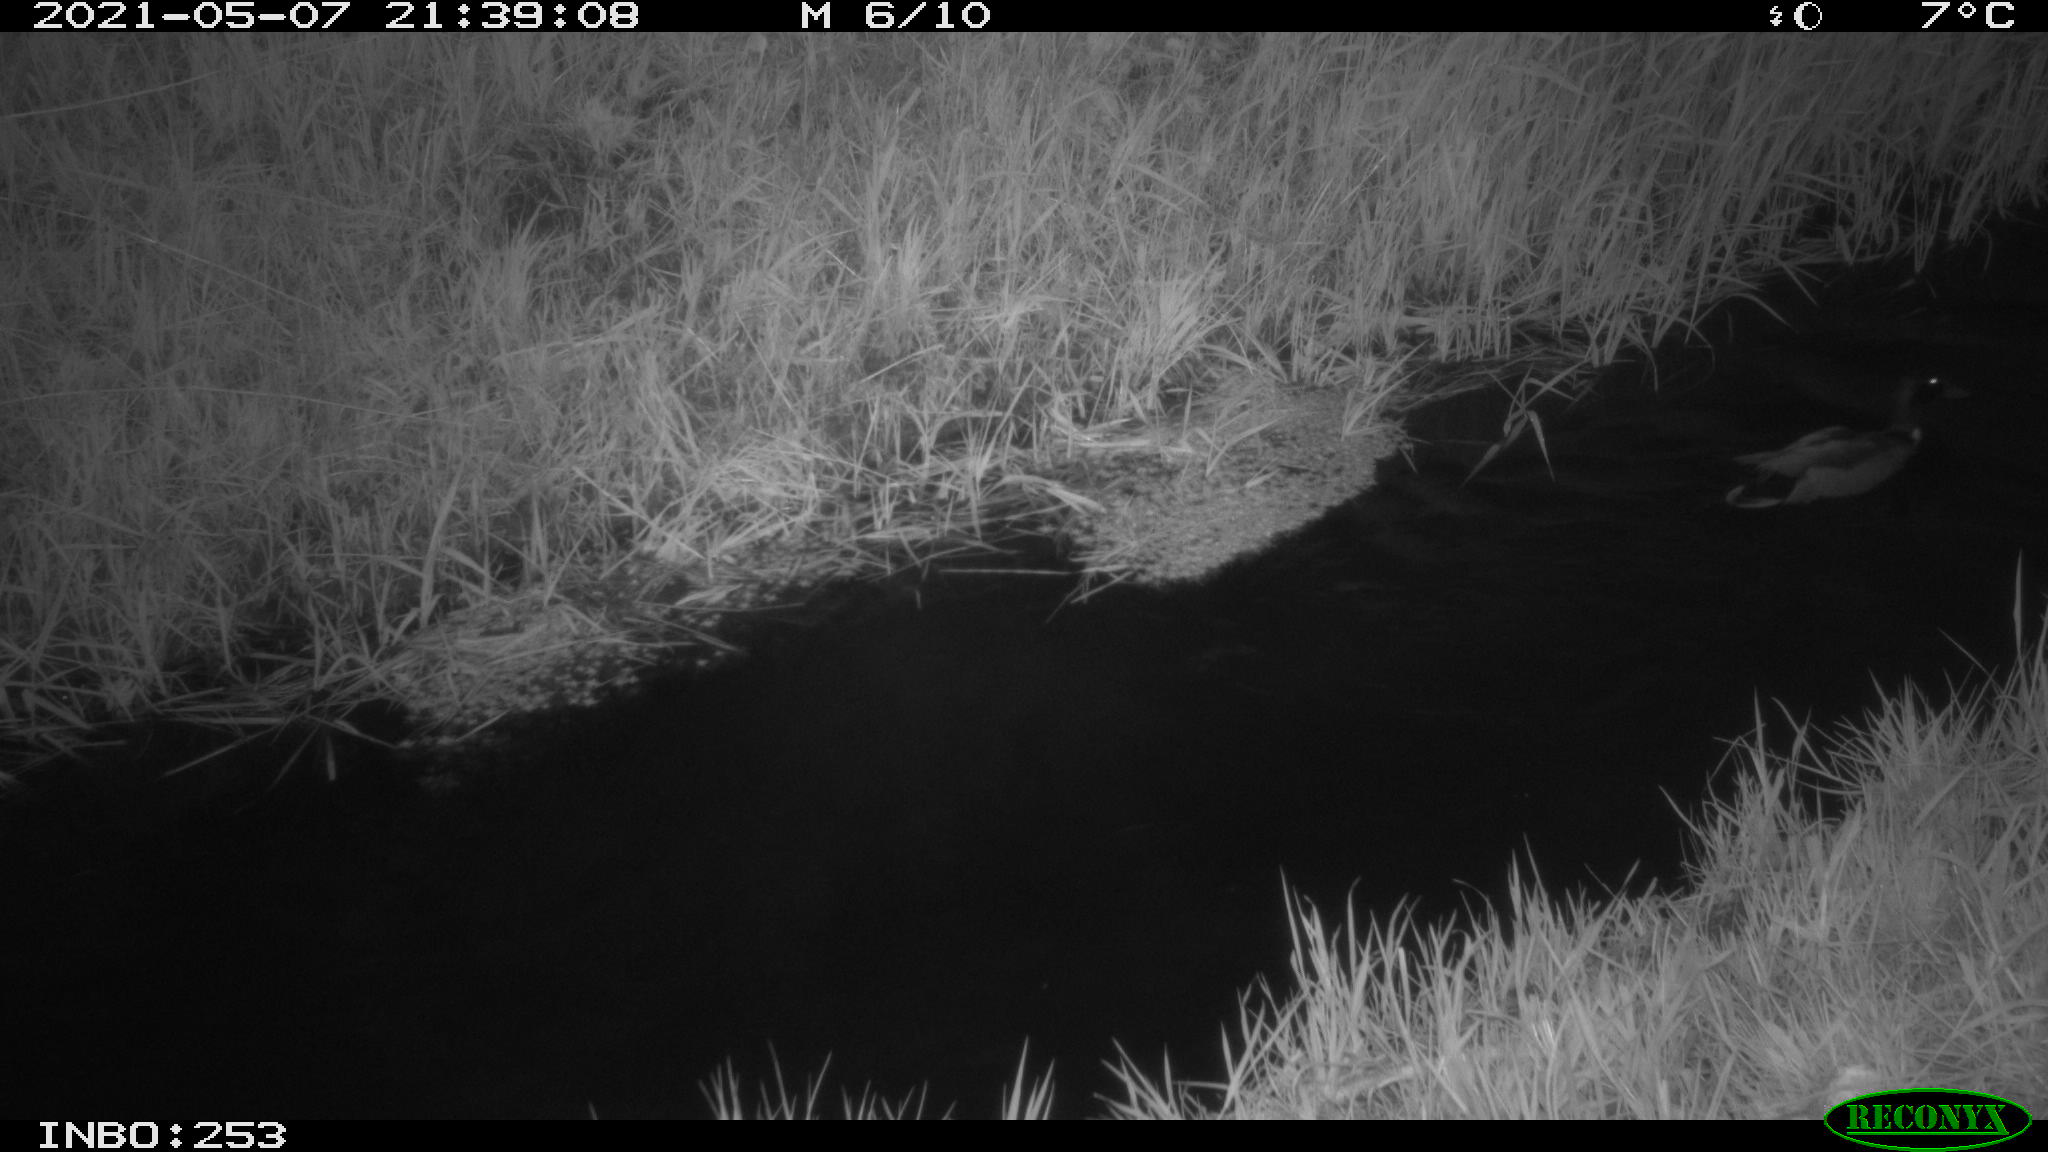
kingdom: Animalia
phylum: Chordata
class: Aves
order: Anseriformes
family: Anatidae
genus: Anas
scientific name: Anas platyrhynchos
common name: Mallard
